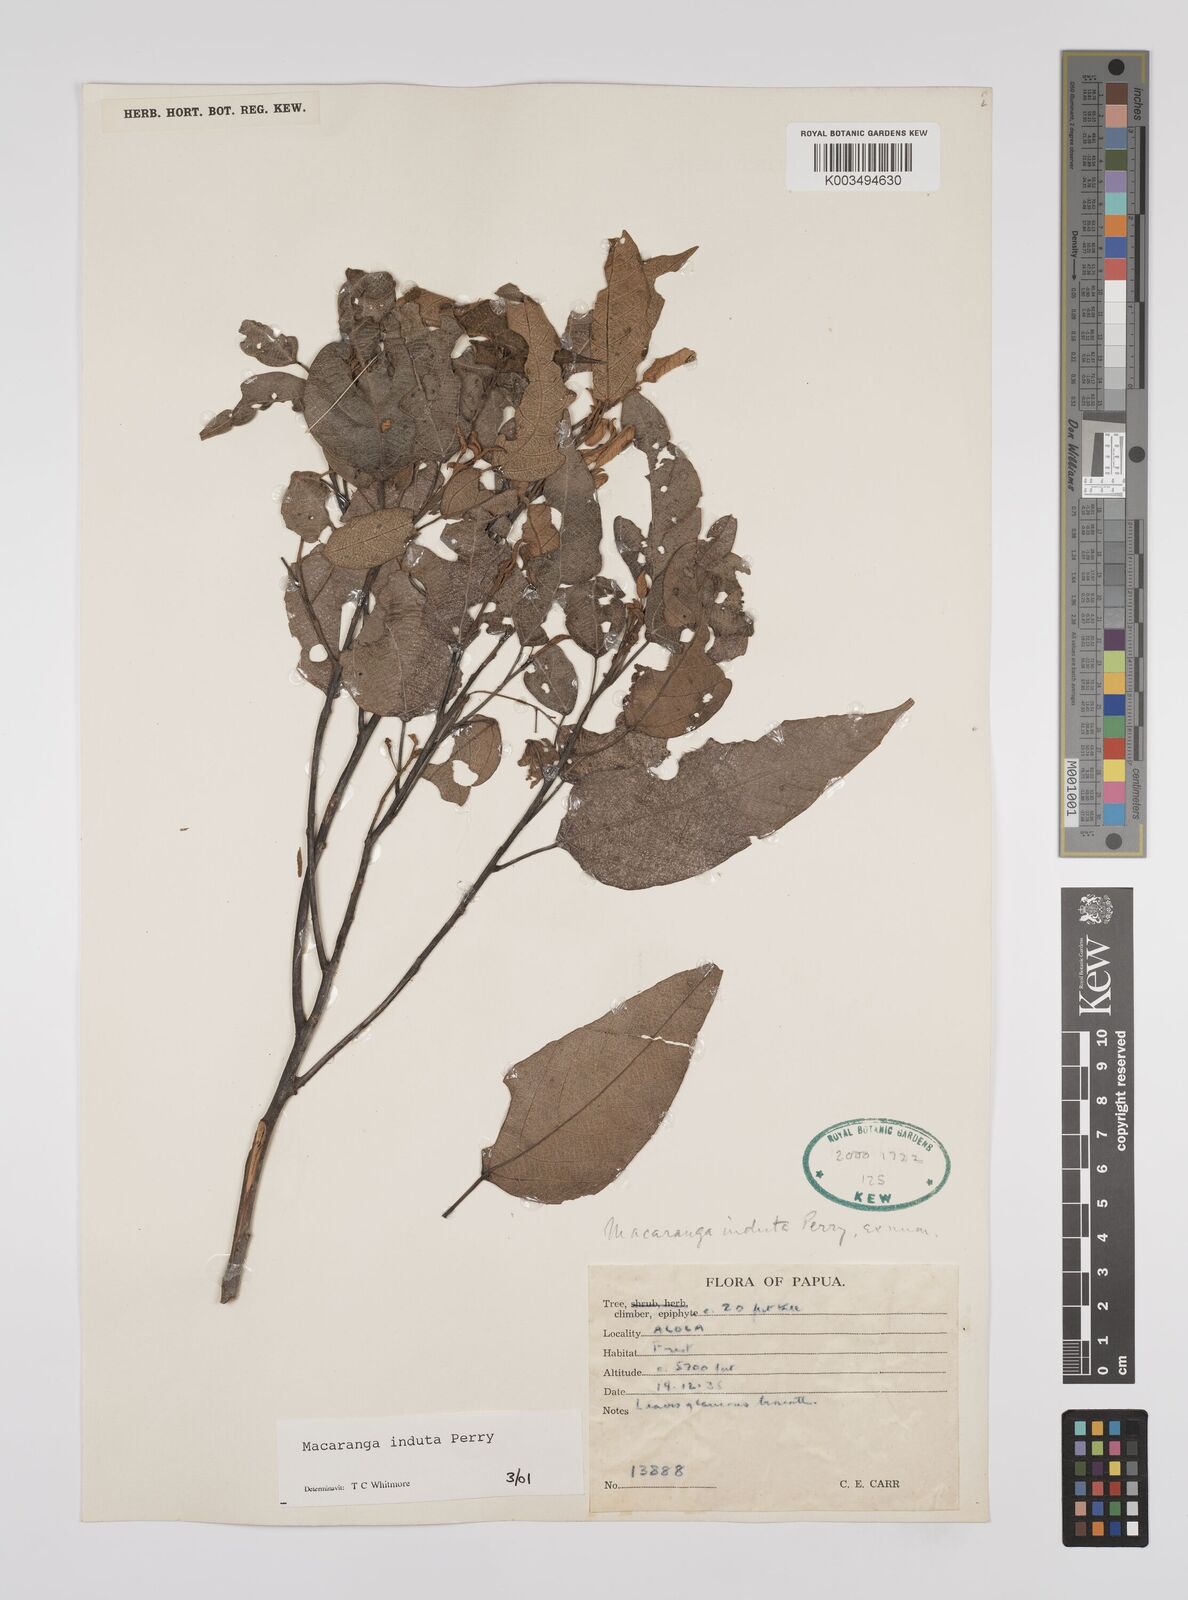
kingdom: Plantae
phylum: Tracheophyta
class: Magnoliopsida
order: Malpighiales
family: Euphorbiaceae
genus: Macaranga
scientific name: Macaranga induta
